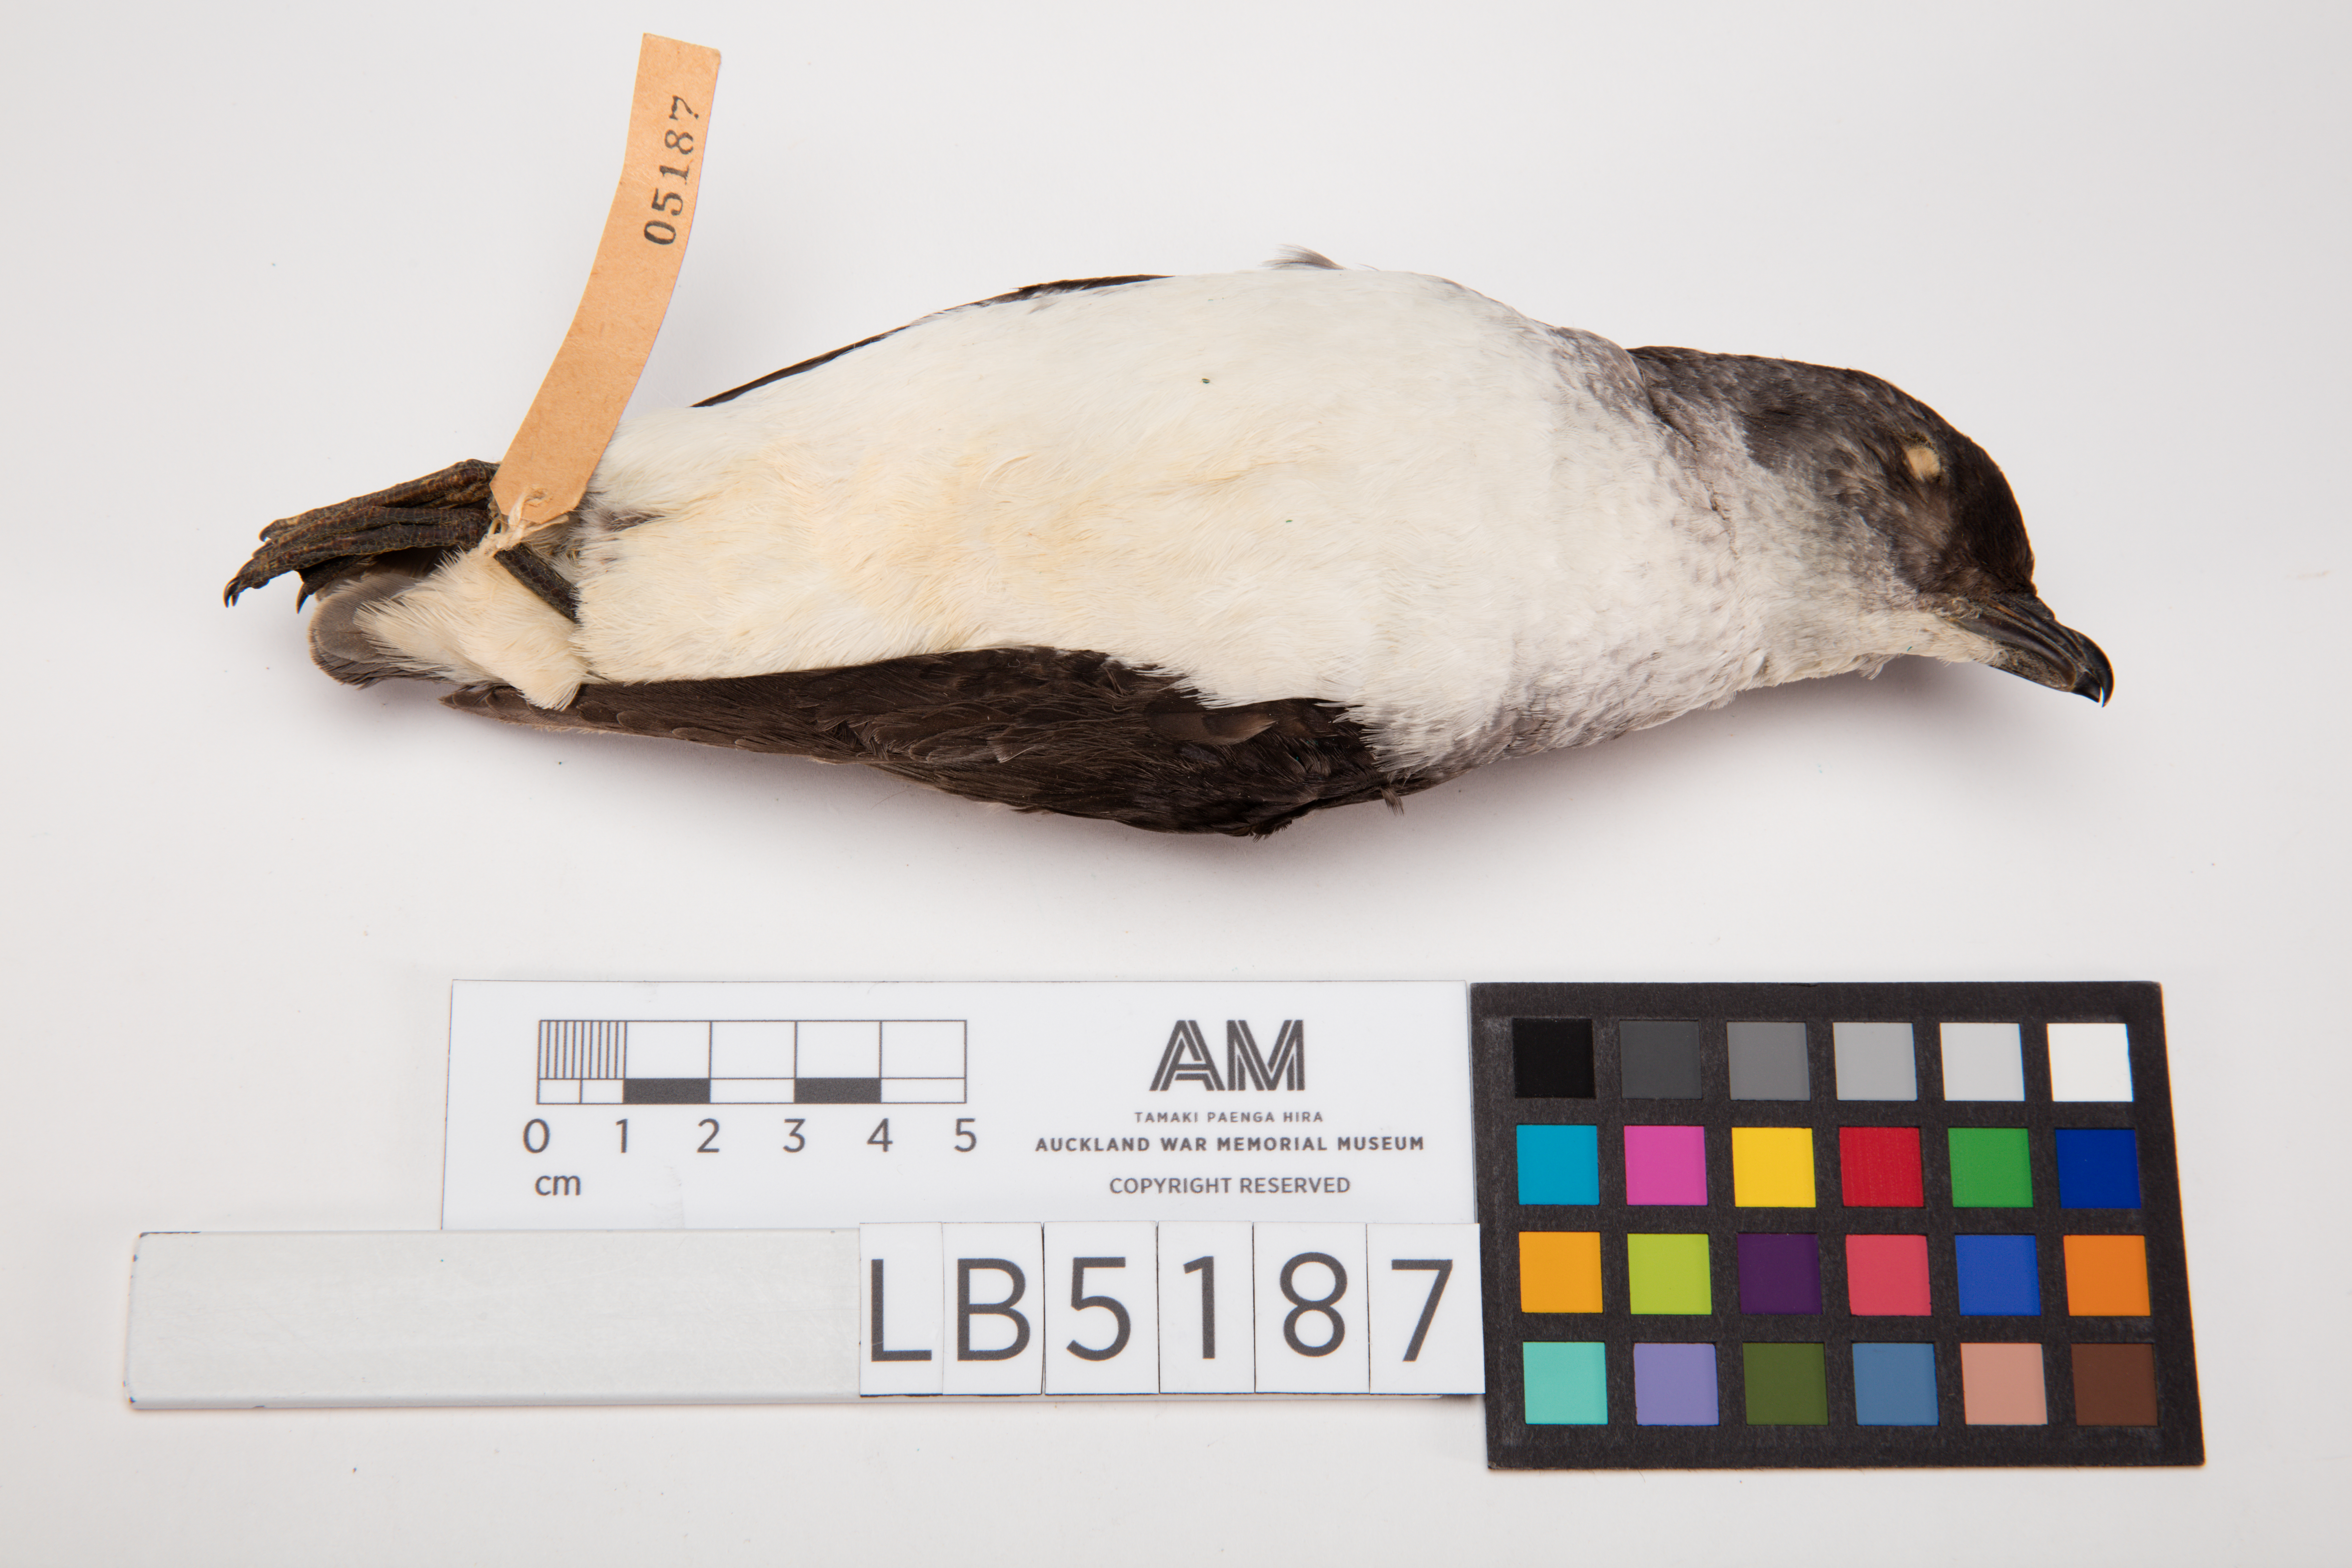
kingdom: Animalia
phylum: Chordata
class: Aves
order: Procellariiformes
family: Pelecanoididae
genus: Pelecanoides
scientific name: Pelecanoides urinatrix
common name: Common diving-petrel
